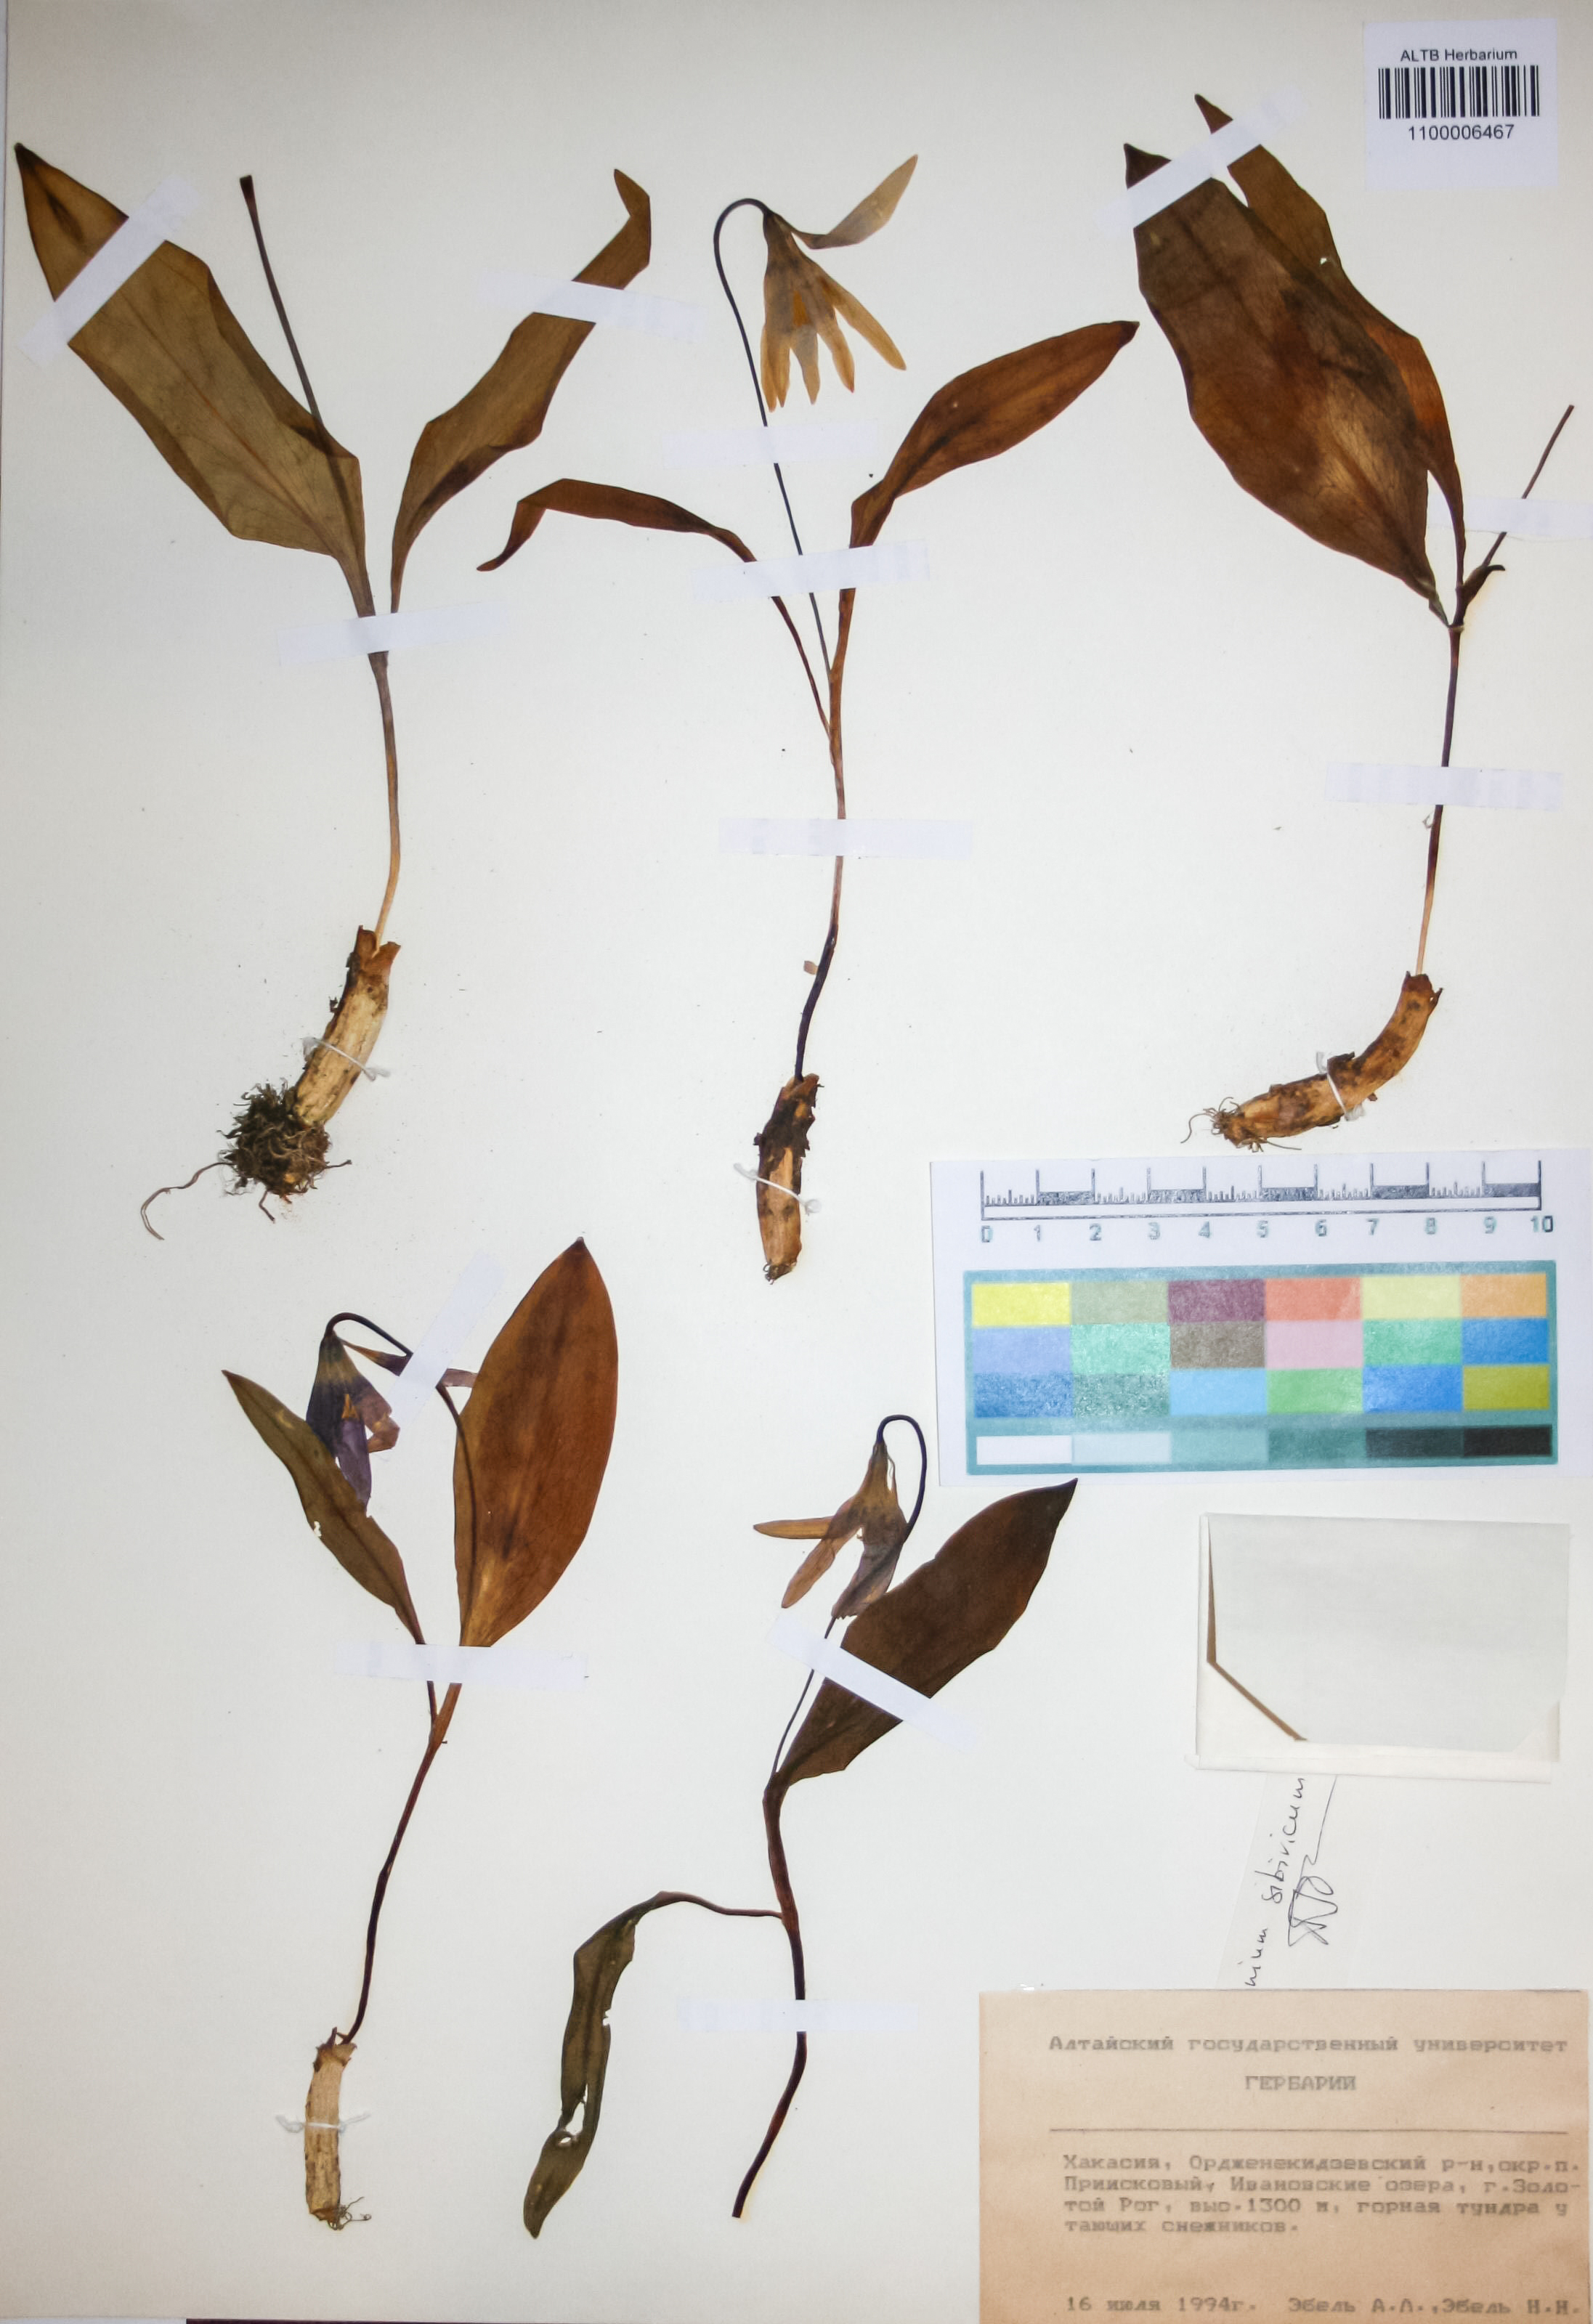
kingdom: Plantae
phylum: Tracheophyta
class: Liliopsida
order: Liliales
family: Liliaceae
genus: Erythronium
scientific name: Erythronium sibiricum
